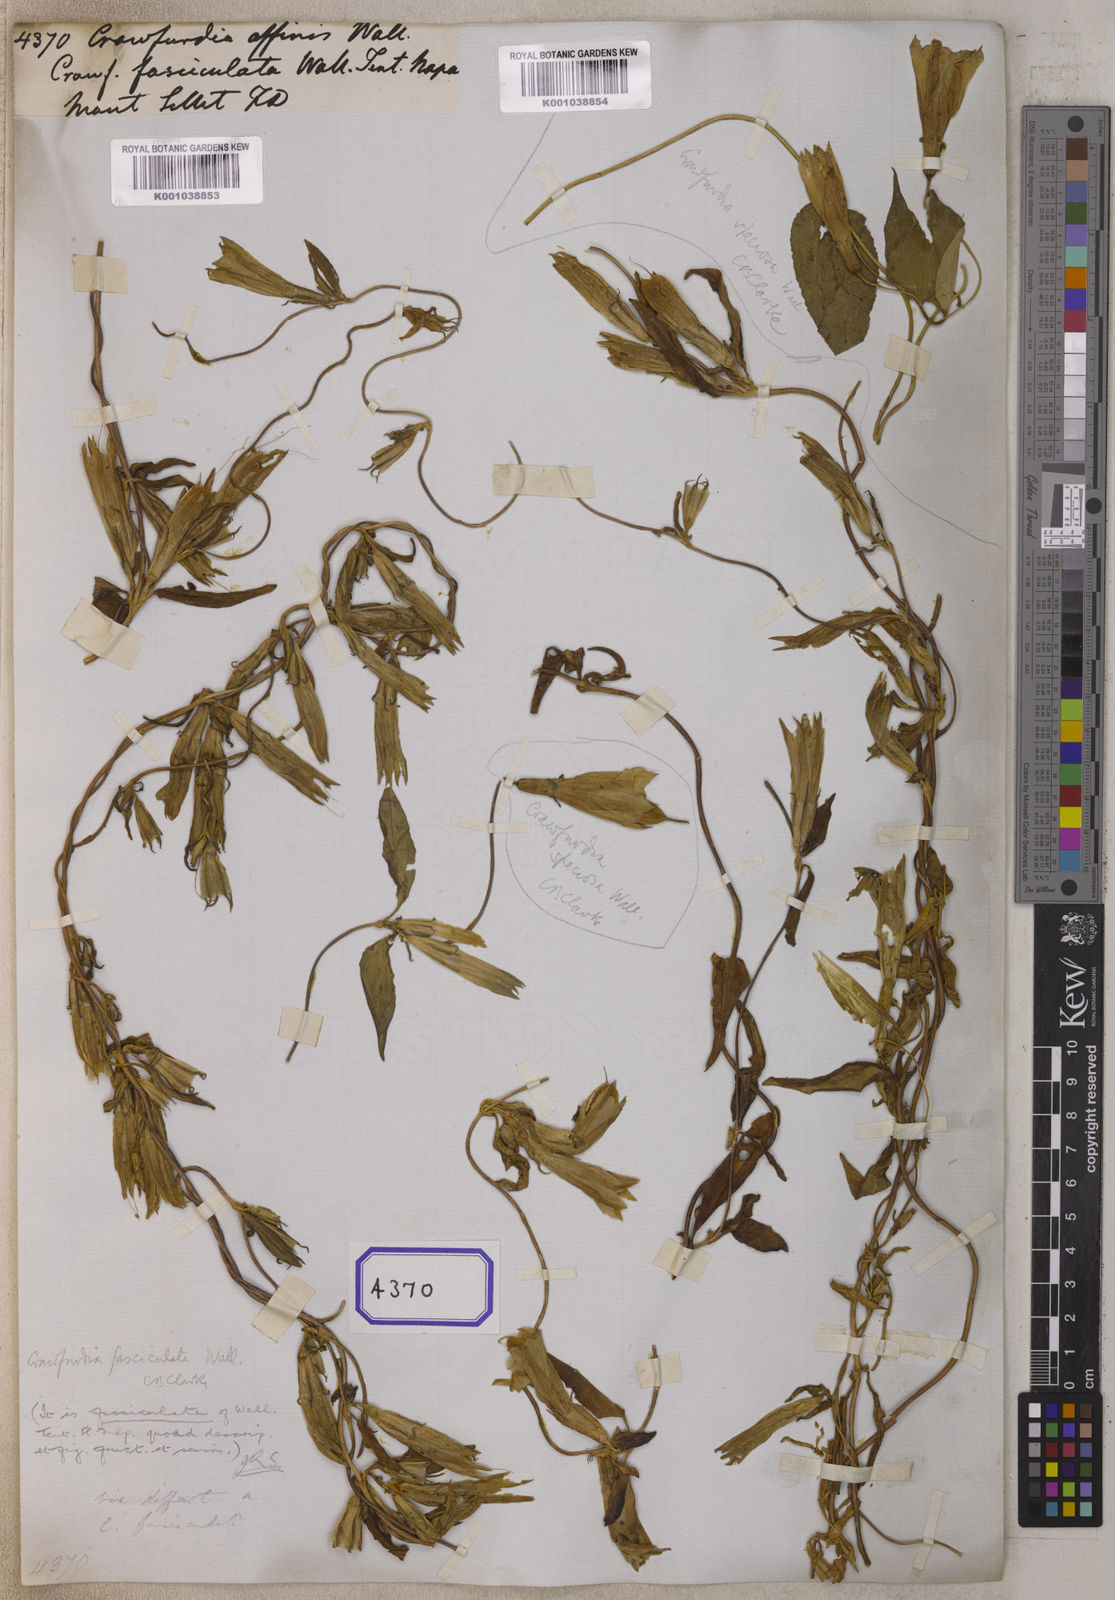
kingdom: Plantae
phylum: Tracheophyta
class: Magnoliopsida
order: Gentianales
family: Gentianaceae
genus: Crawfurdia
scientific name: Crawfurdia
